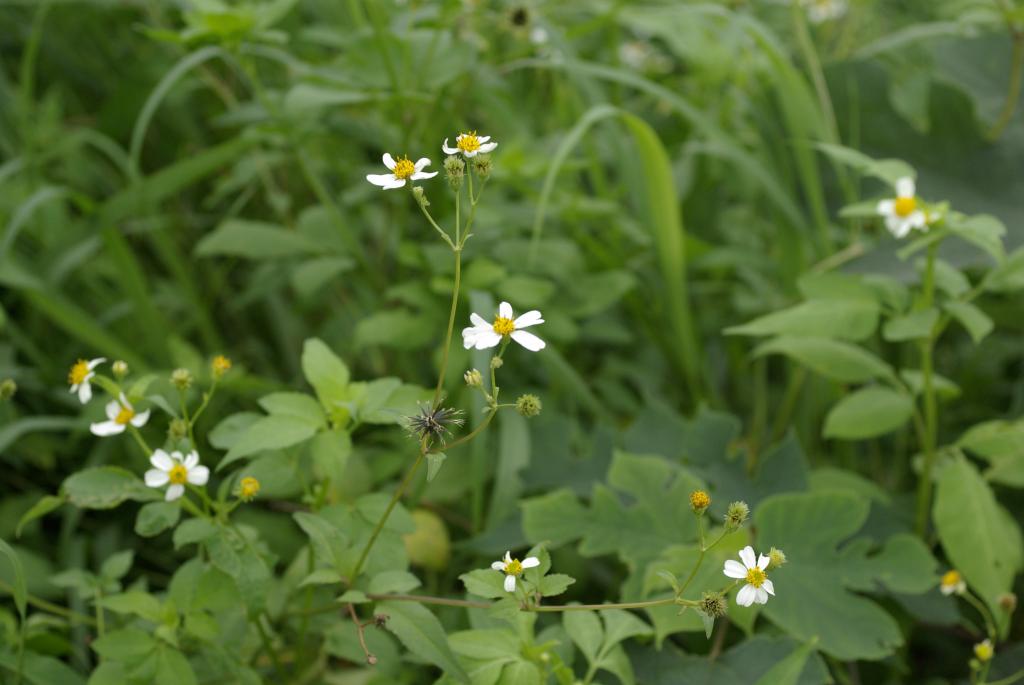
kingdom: Plantae
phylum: Tracheophyta
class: Magnoliopsida
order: Asterales
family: Asteraceae
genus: Bidens
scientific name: Bidens pilosa
